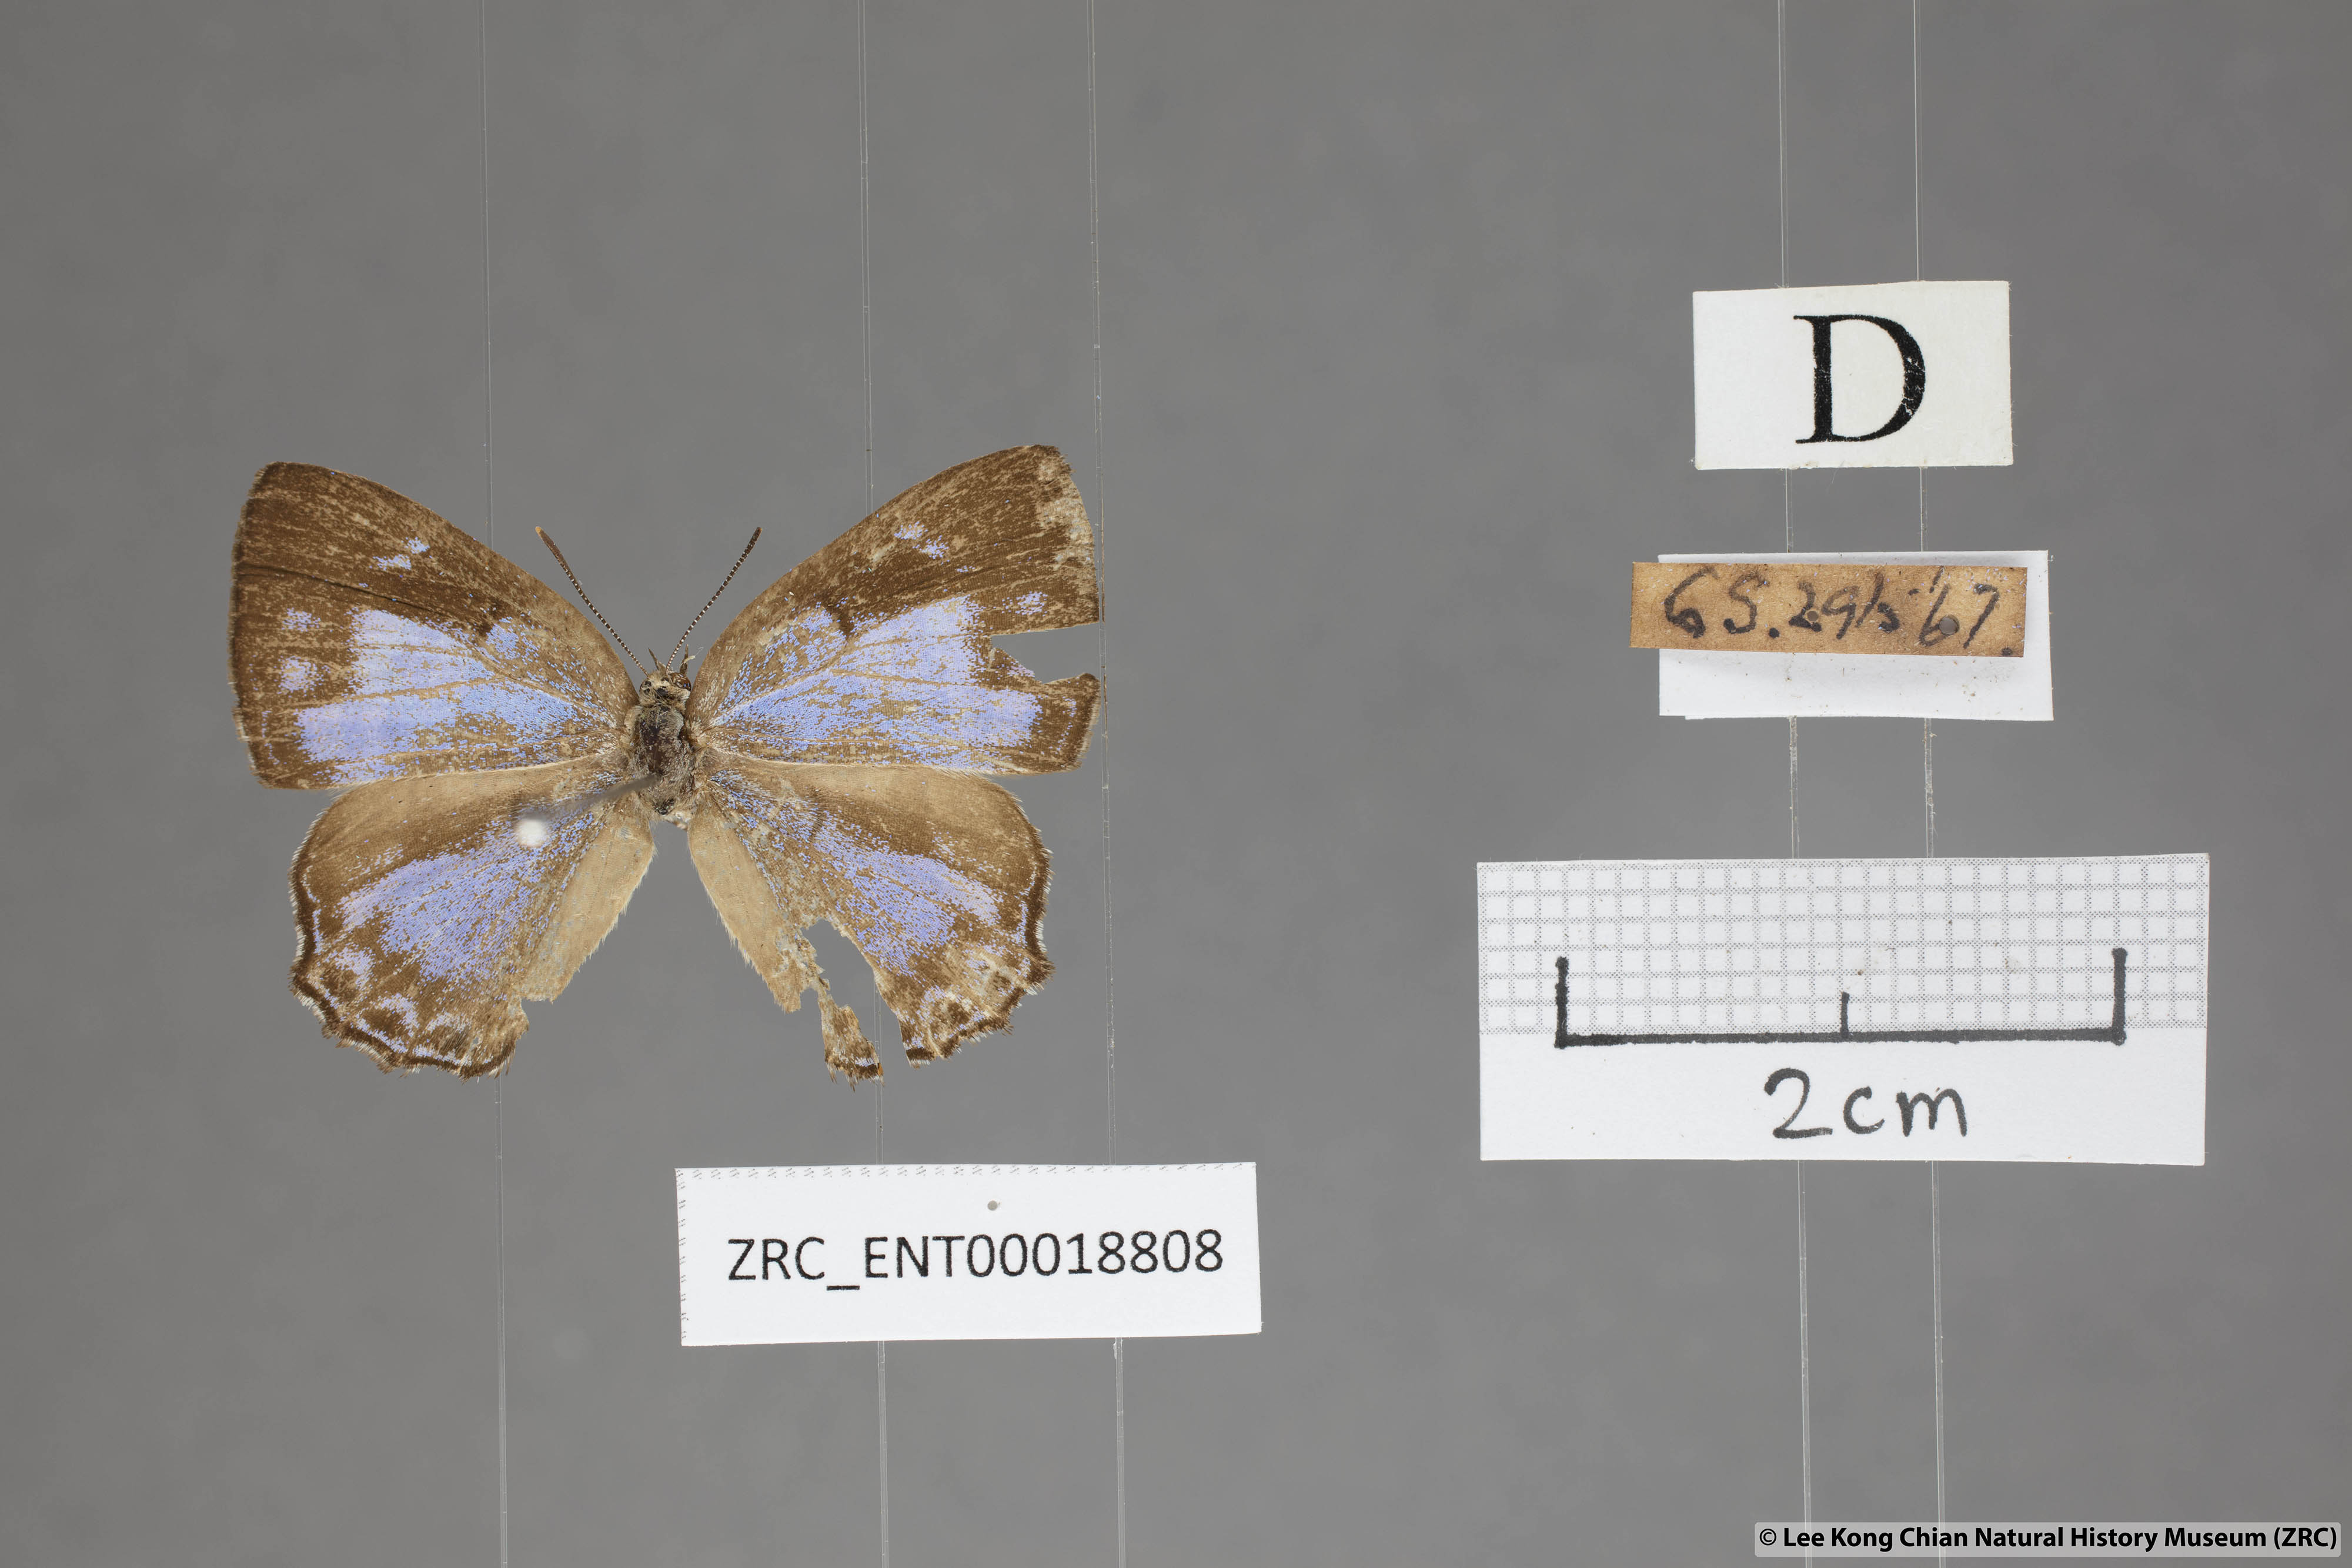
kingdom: Animalia
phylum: Arthropoda
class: Insecta
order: Lepidoptera
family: Lycaenidae
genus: Poritia
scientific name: Poritia pleurata
